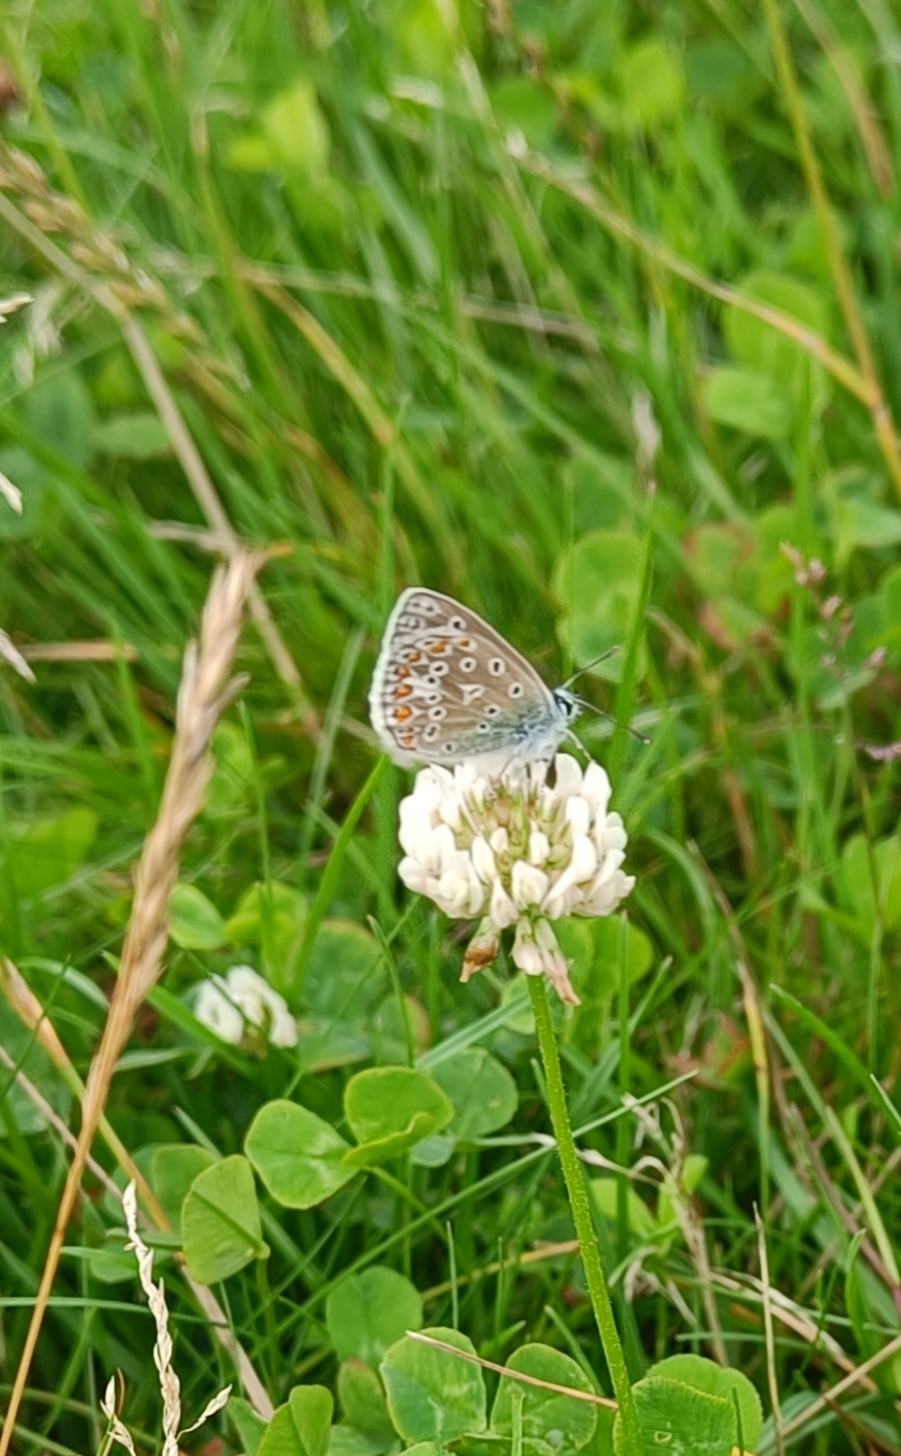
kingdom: Animalia
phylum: Arthropoda
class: Insecta
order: Lepidoptera
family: Lycaenidae
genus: Polyommatus
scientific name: Polyommatus icarus
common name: Almindelig blåfugl
